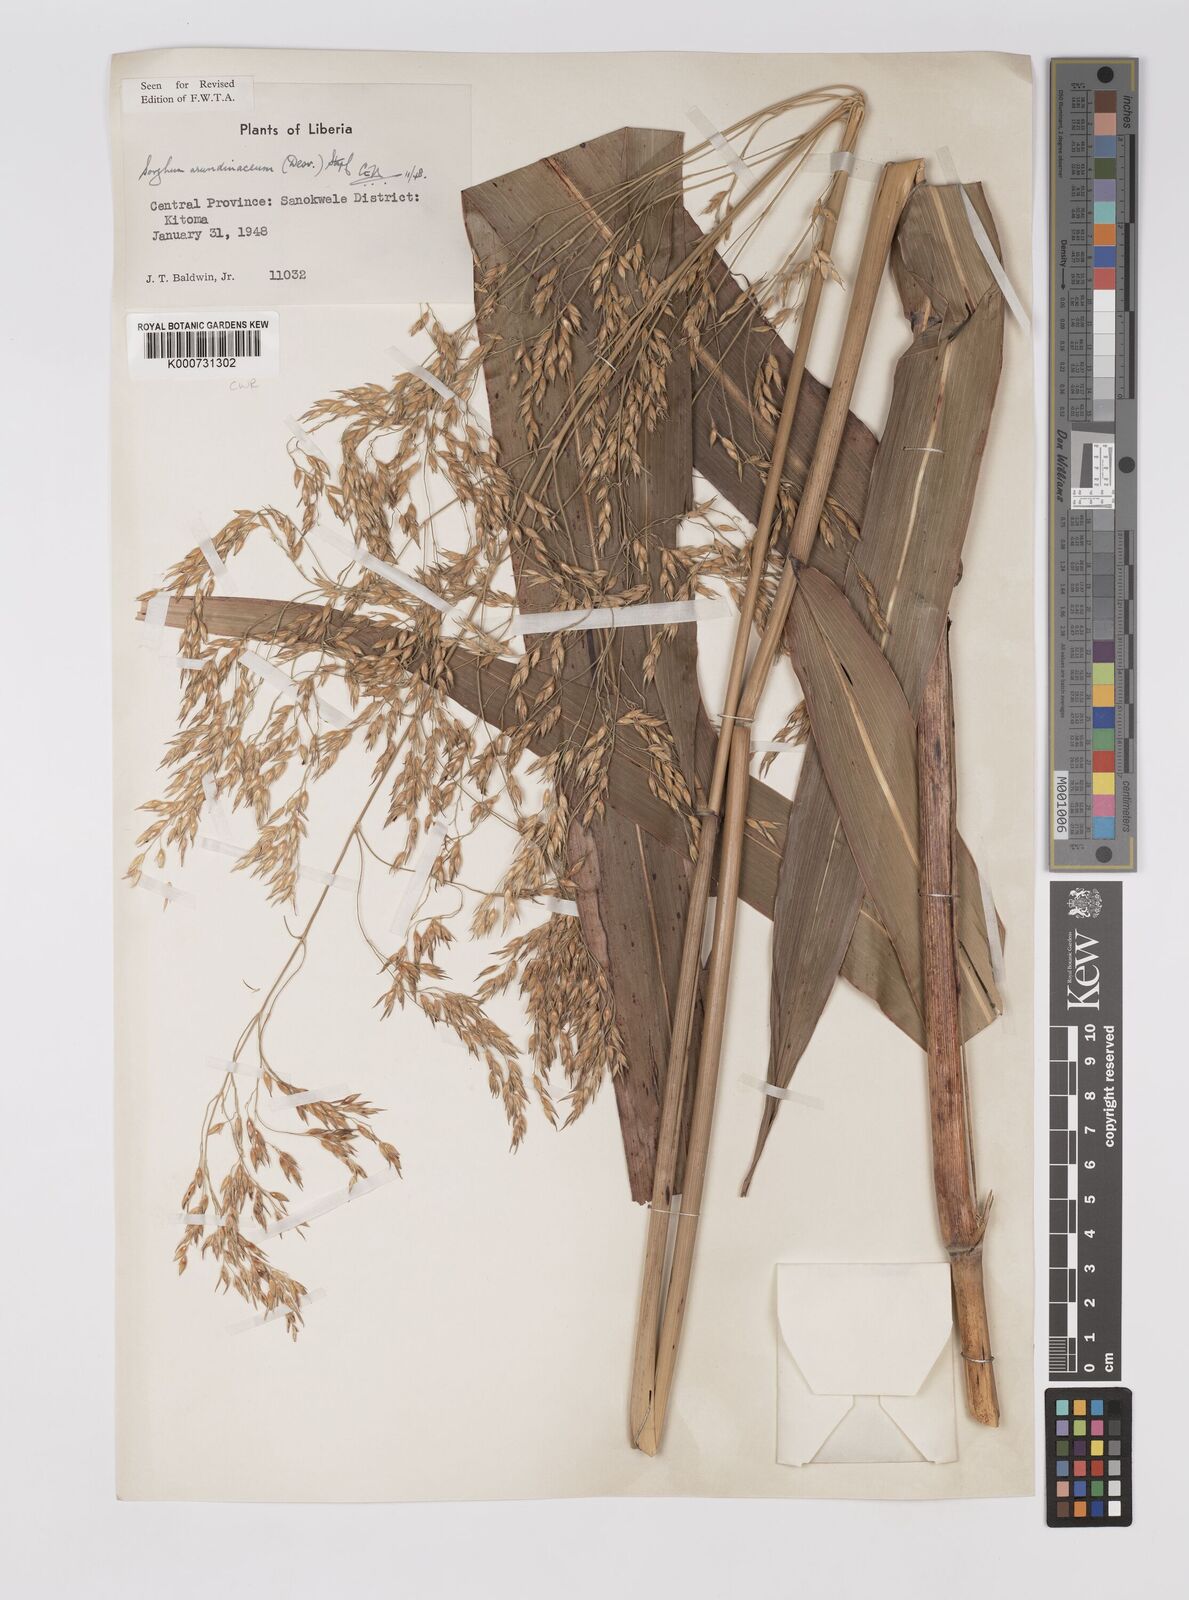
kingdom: Plantae
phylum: Tracheophyta
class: Liliopsida
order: Poales
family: Poaceae
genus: Sorghum
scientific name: Sorghum arundinaceum
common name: Sorghum
